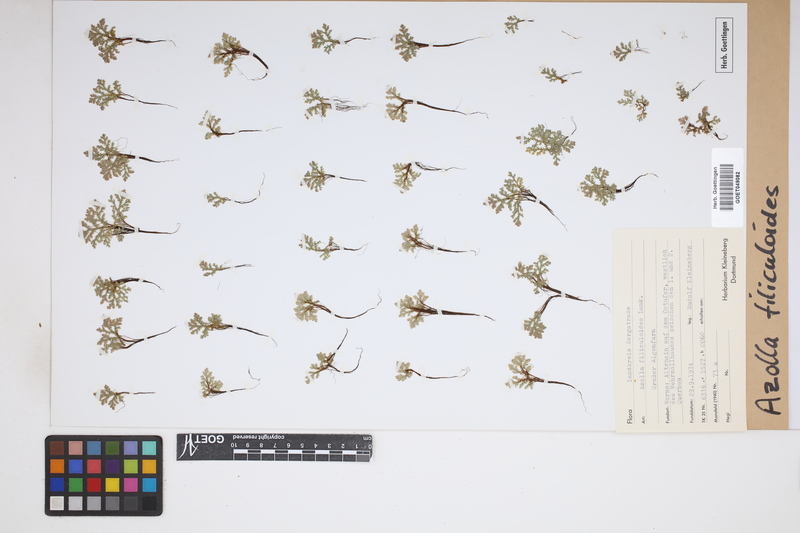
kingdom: Plantae
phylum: Tracheophyta
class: Polypodiopsida
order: Salviniales
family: Salviniaceae
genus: Azolla
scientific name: Azolla filiculoides
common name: Water fern
